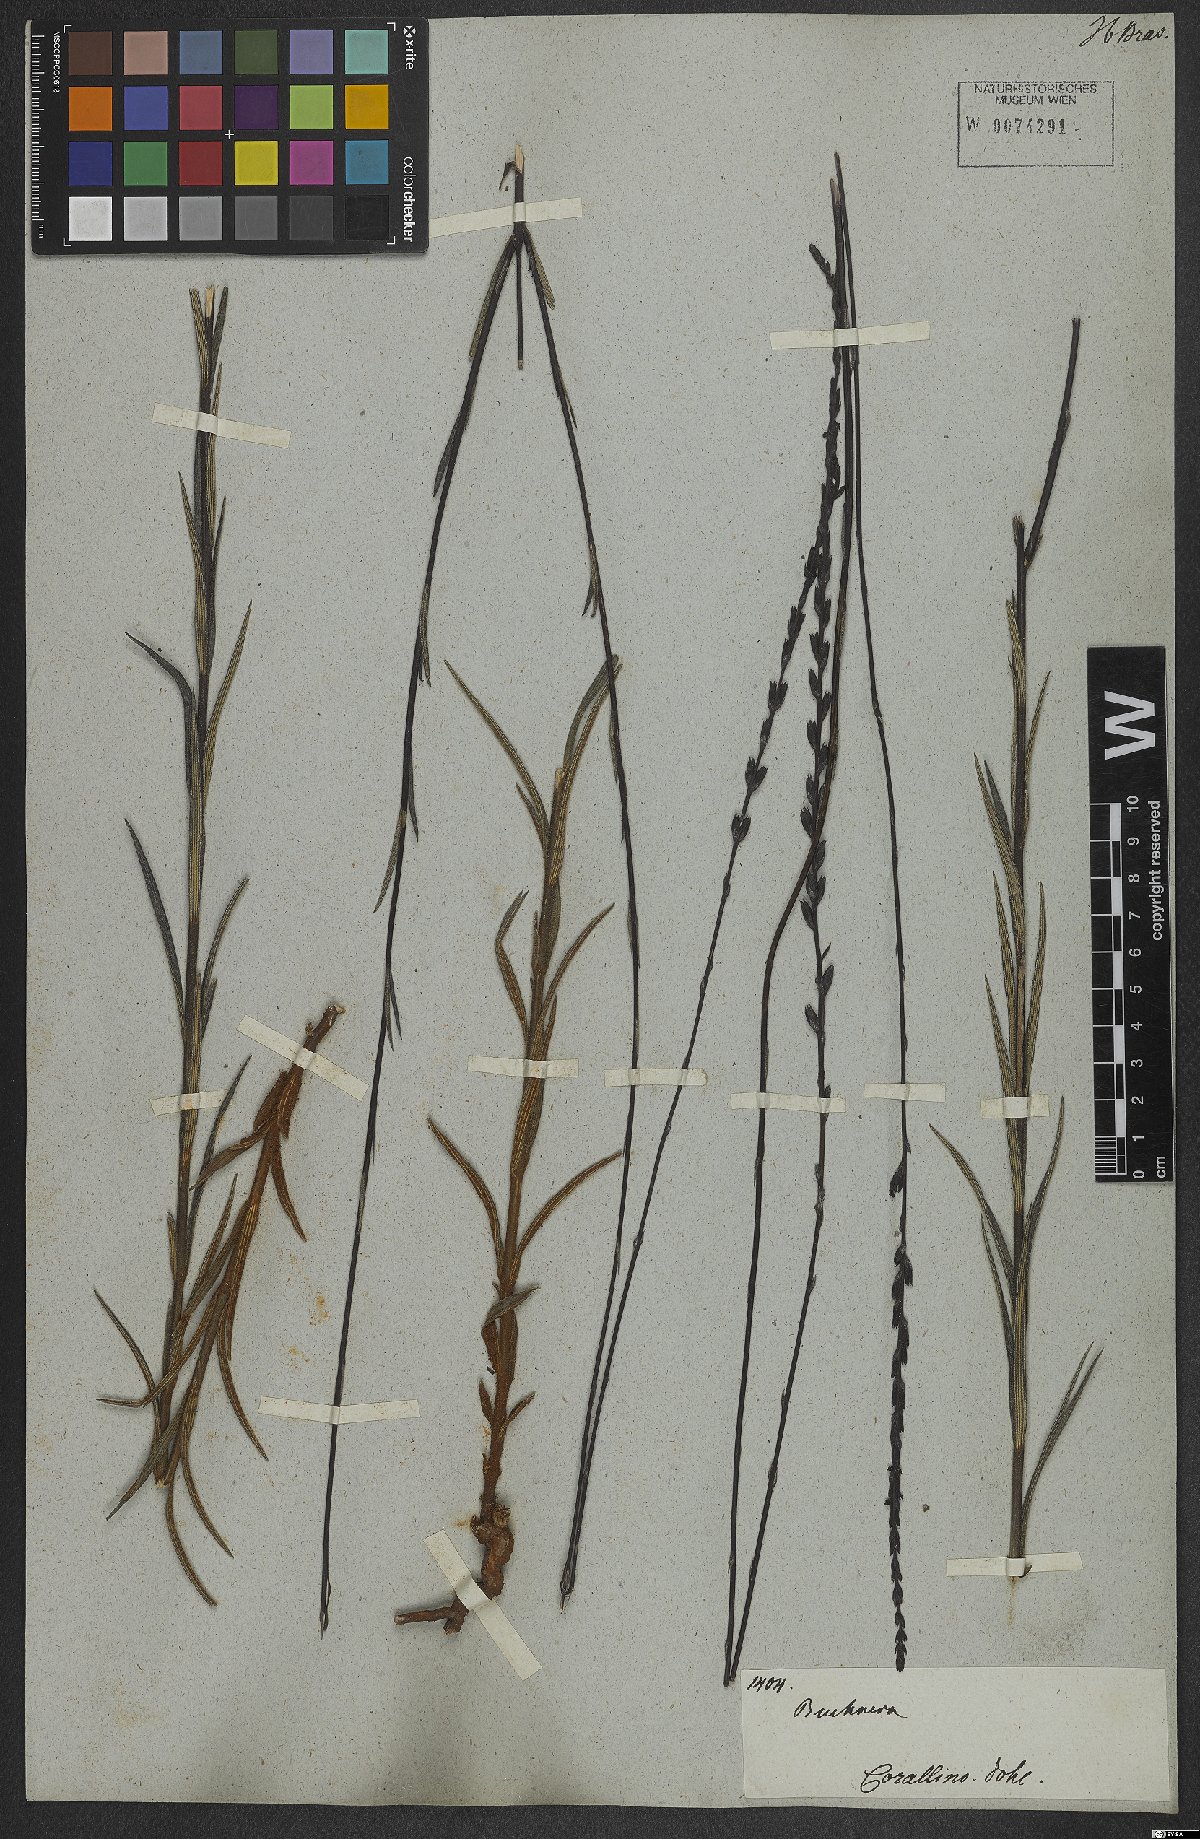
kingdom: Plantae
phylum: Tracheophyta
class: Magnoliopsida
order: Lamiales
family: Orobanchaceae
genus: Buchnera
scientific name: Buchnera disticha
